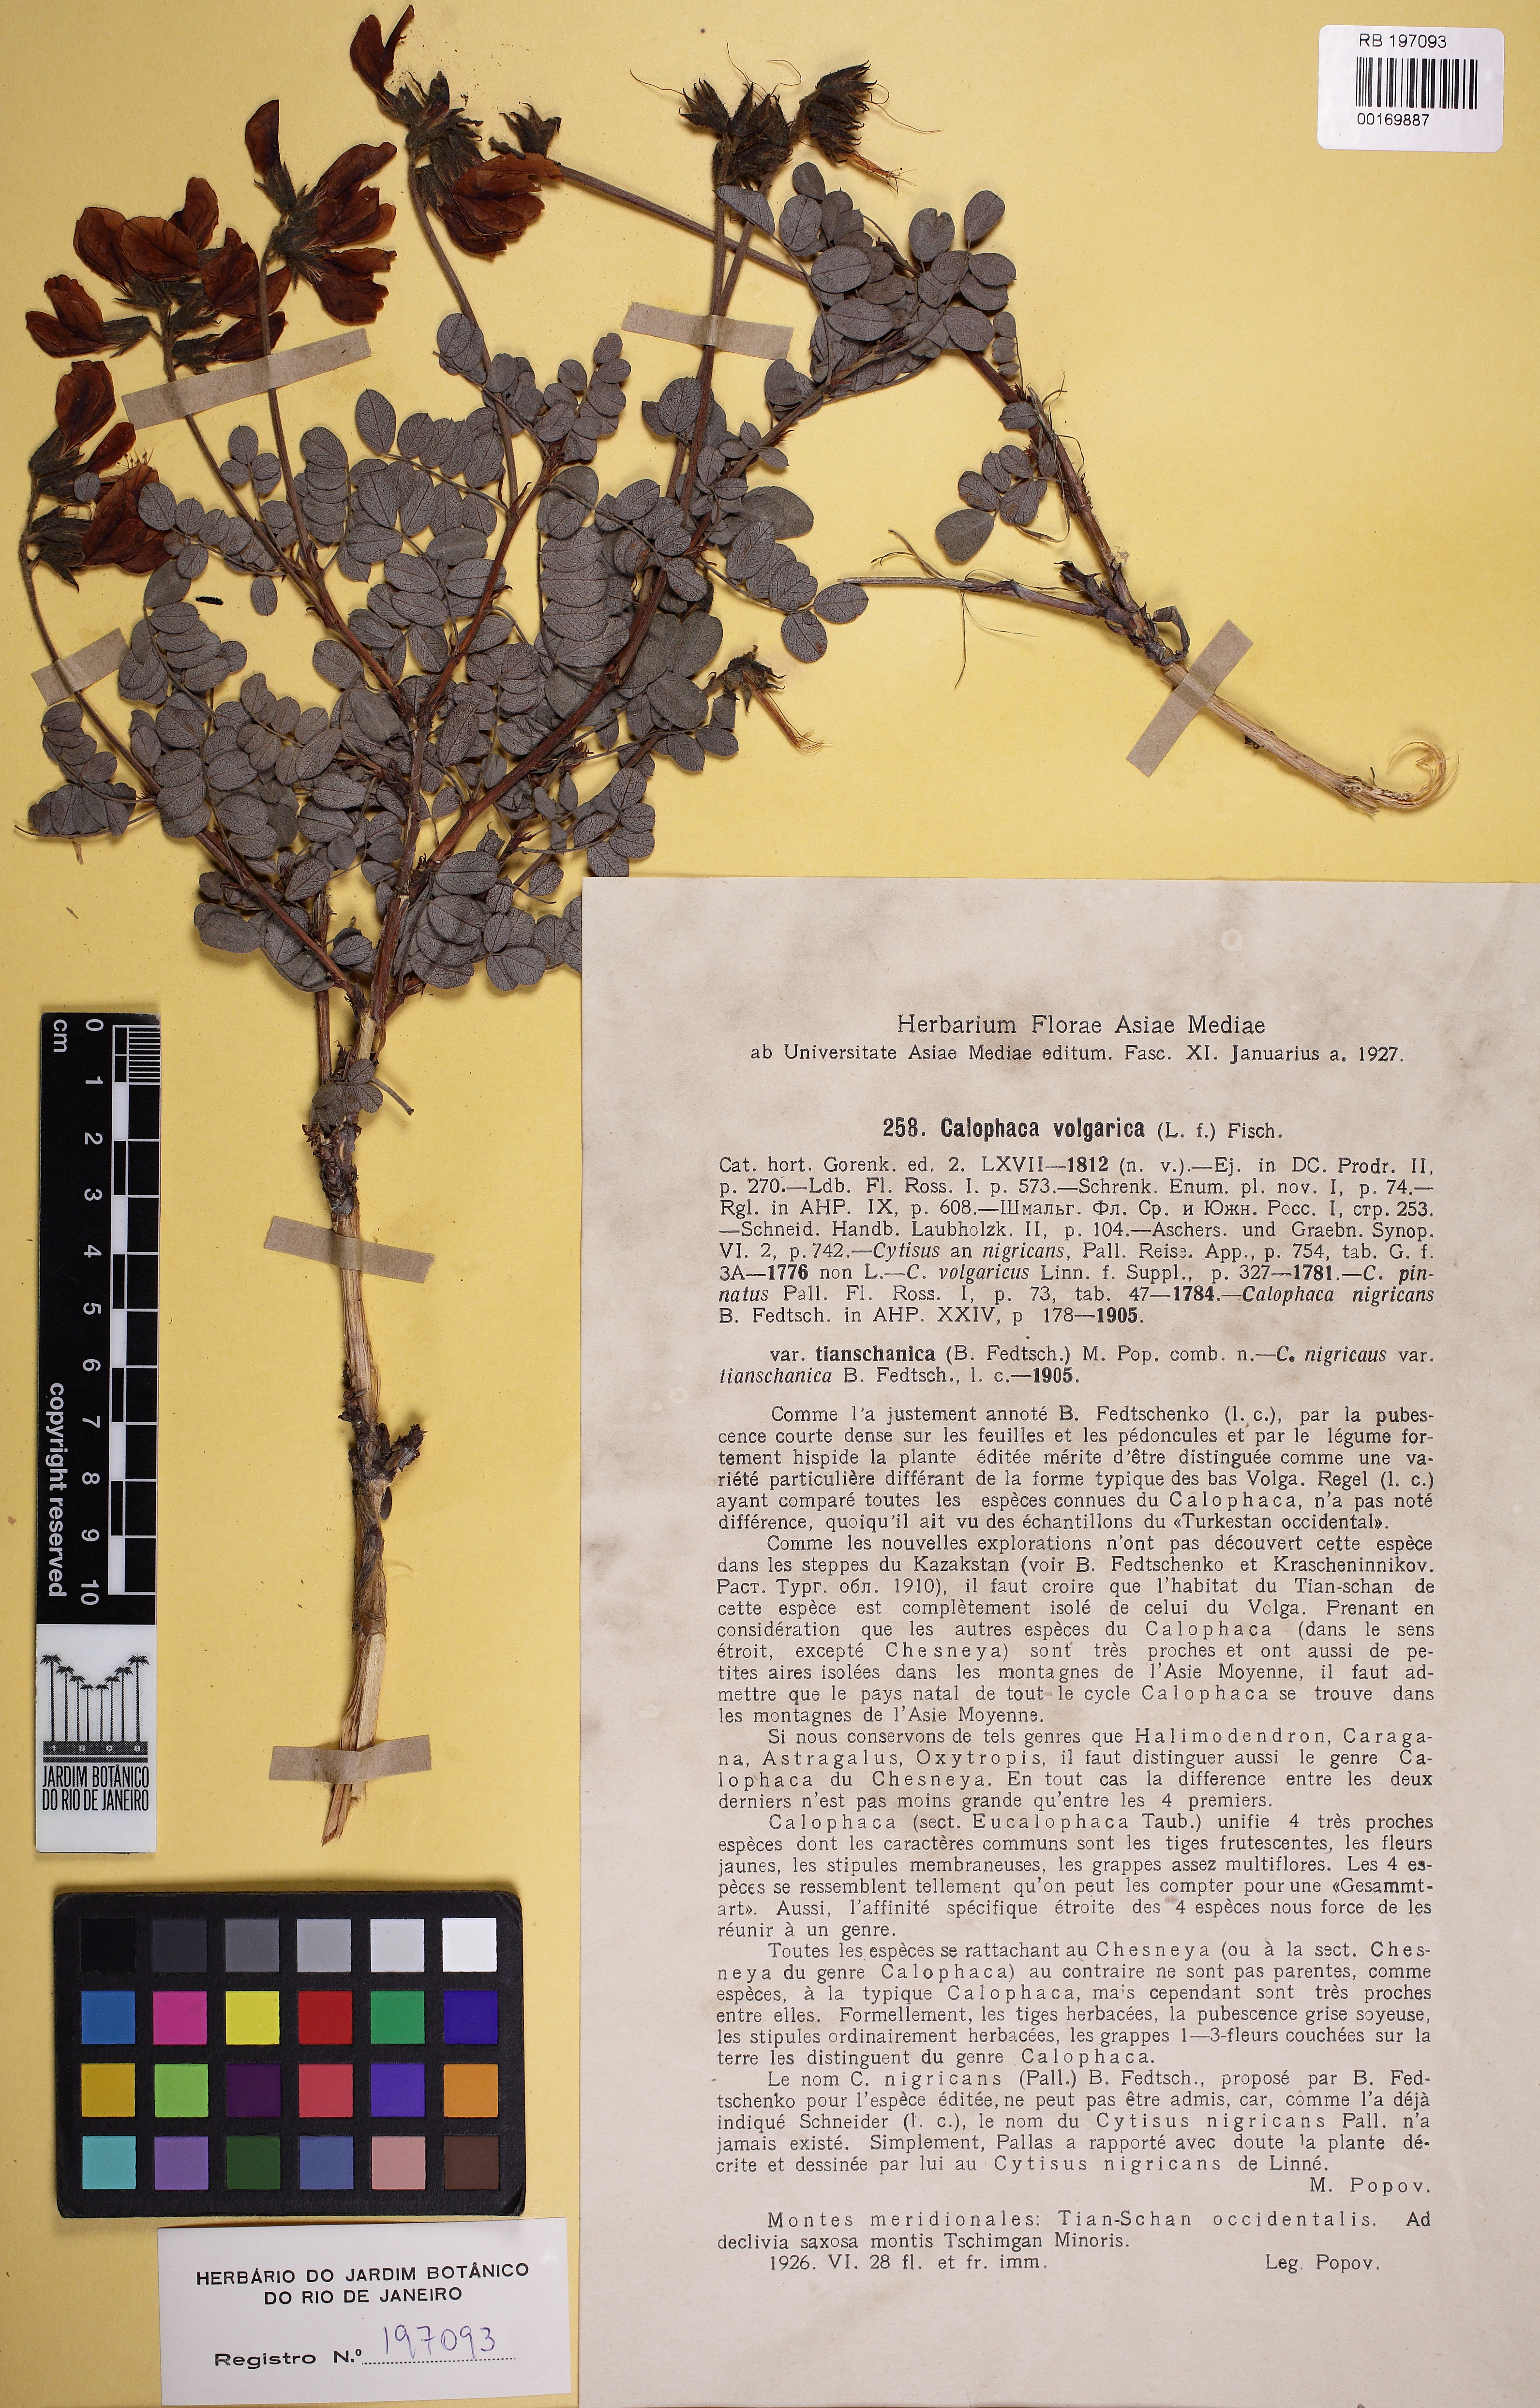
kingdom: Plantae
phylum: Tracheophyta
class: Magnoliopsida
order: Fabales
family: Fabaceae
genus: Calophaca
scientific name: Calophaca wolgarica
